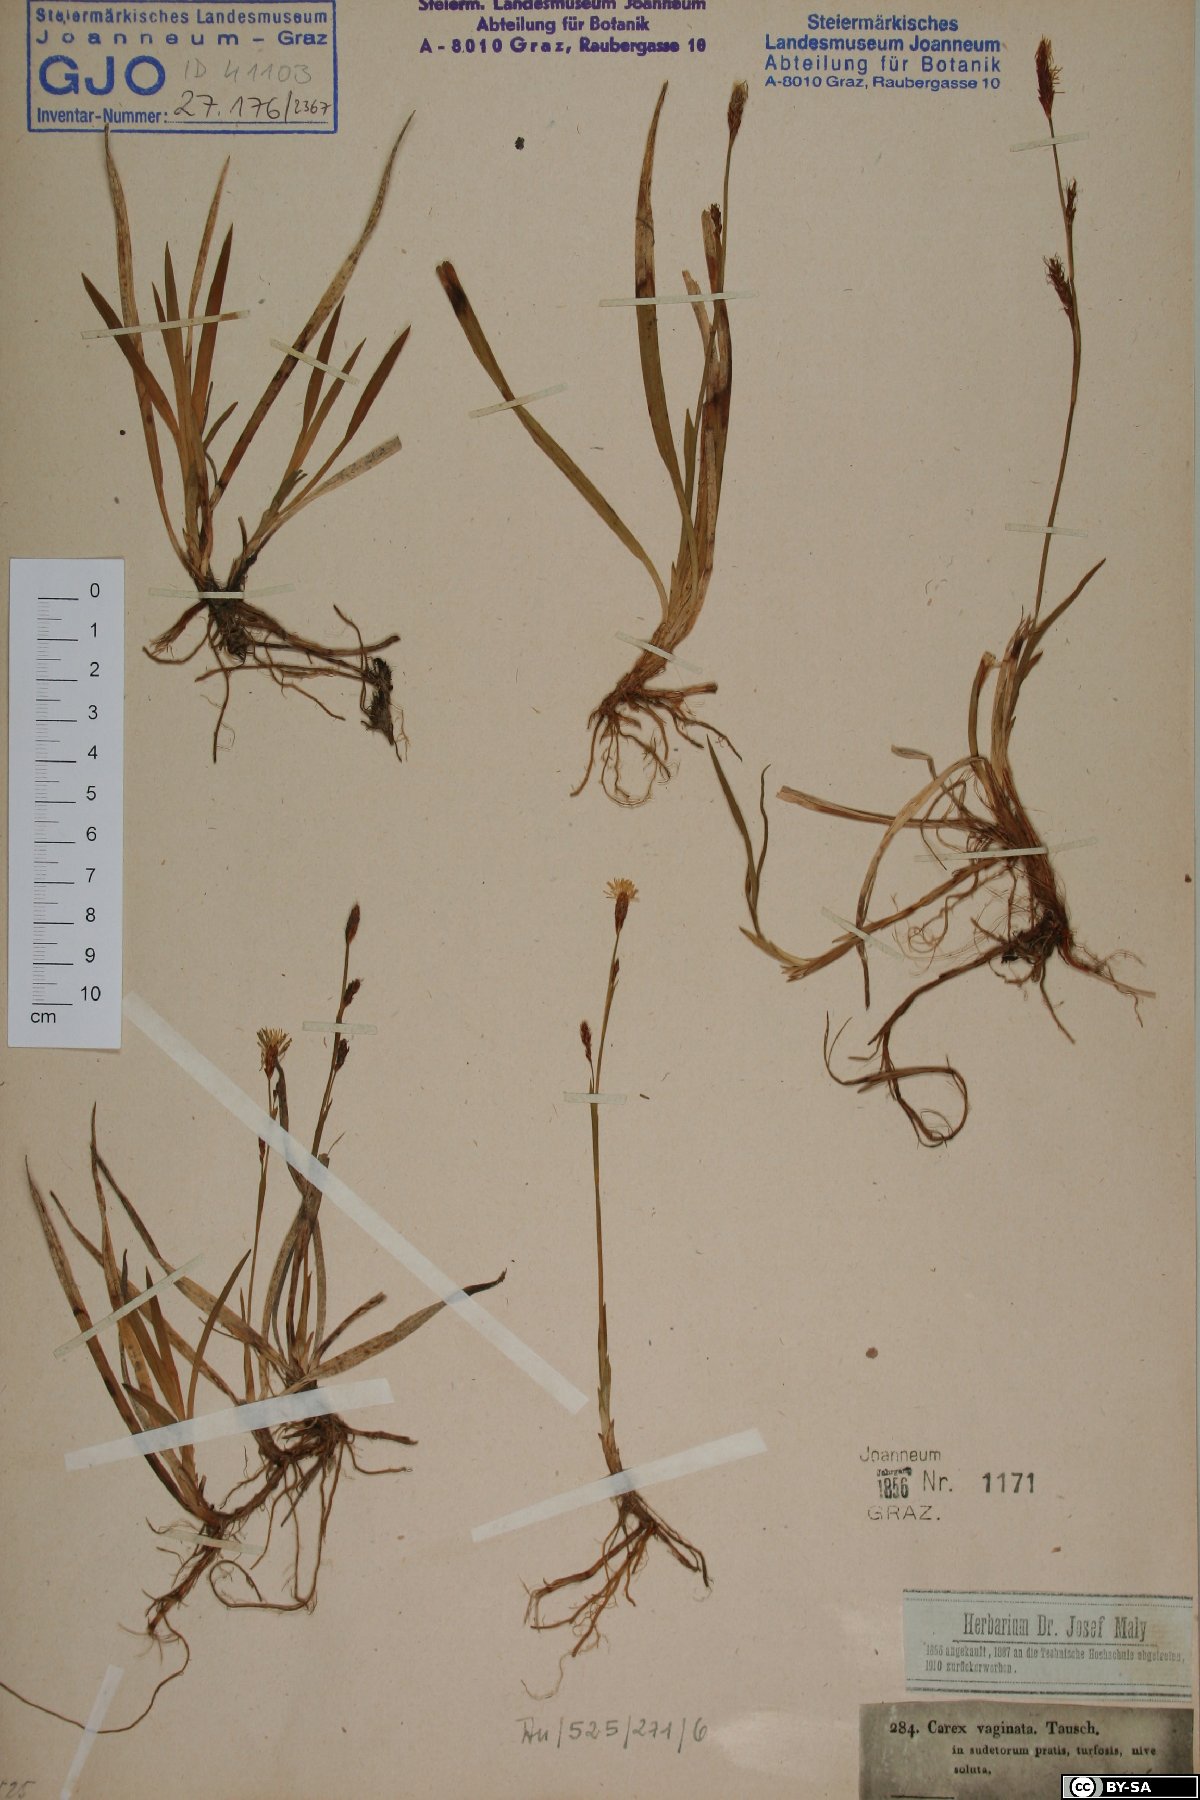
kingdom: Plantae
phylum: Tracheophyta
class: Liliopsida
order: Poales
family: Cyperaceae
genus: Carex
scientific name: Carex vaginata
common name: Sheathed sedge
